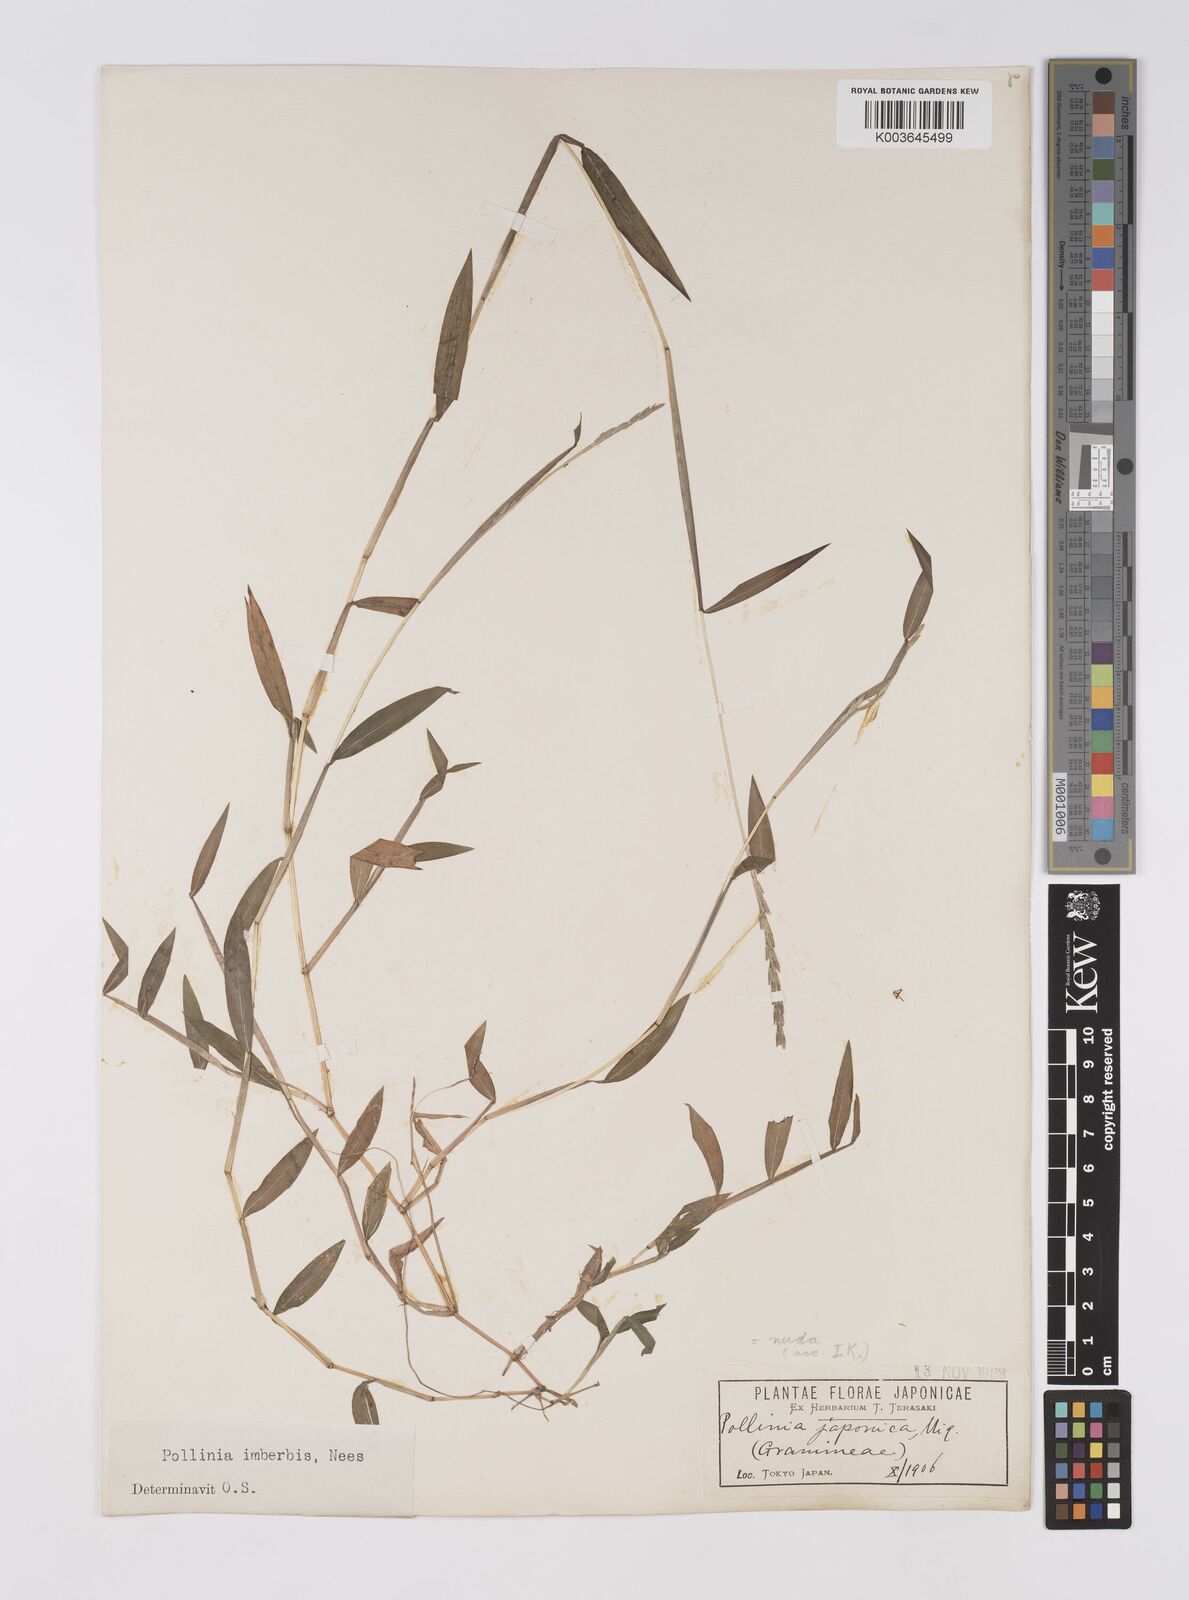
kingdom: Plantae
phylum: Tracheophyta
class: Liliopsida
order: Poales
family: Poaceae
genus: Microstegium
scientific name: Microstegium vimineum
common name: Japanese stiltgrass
